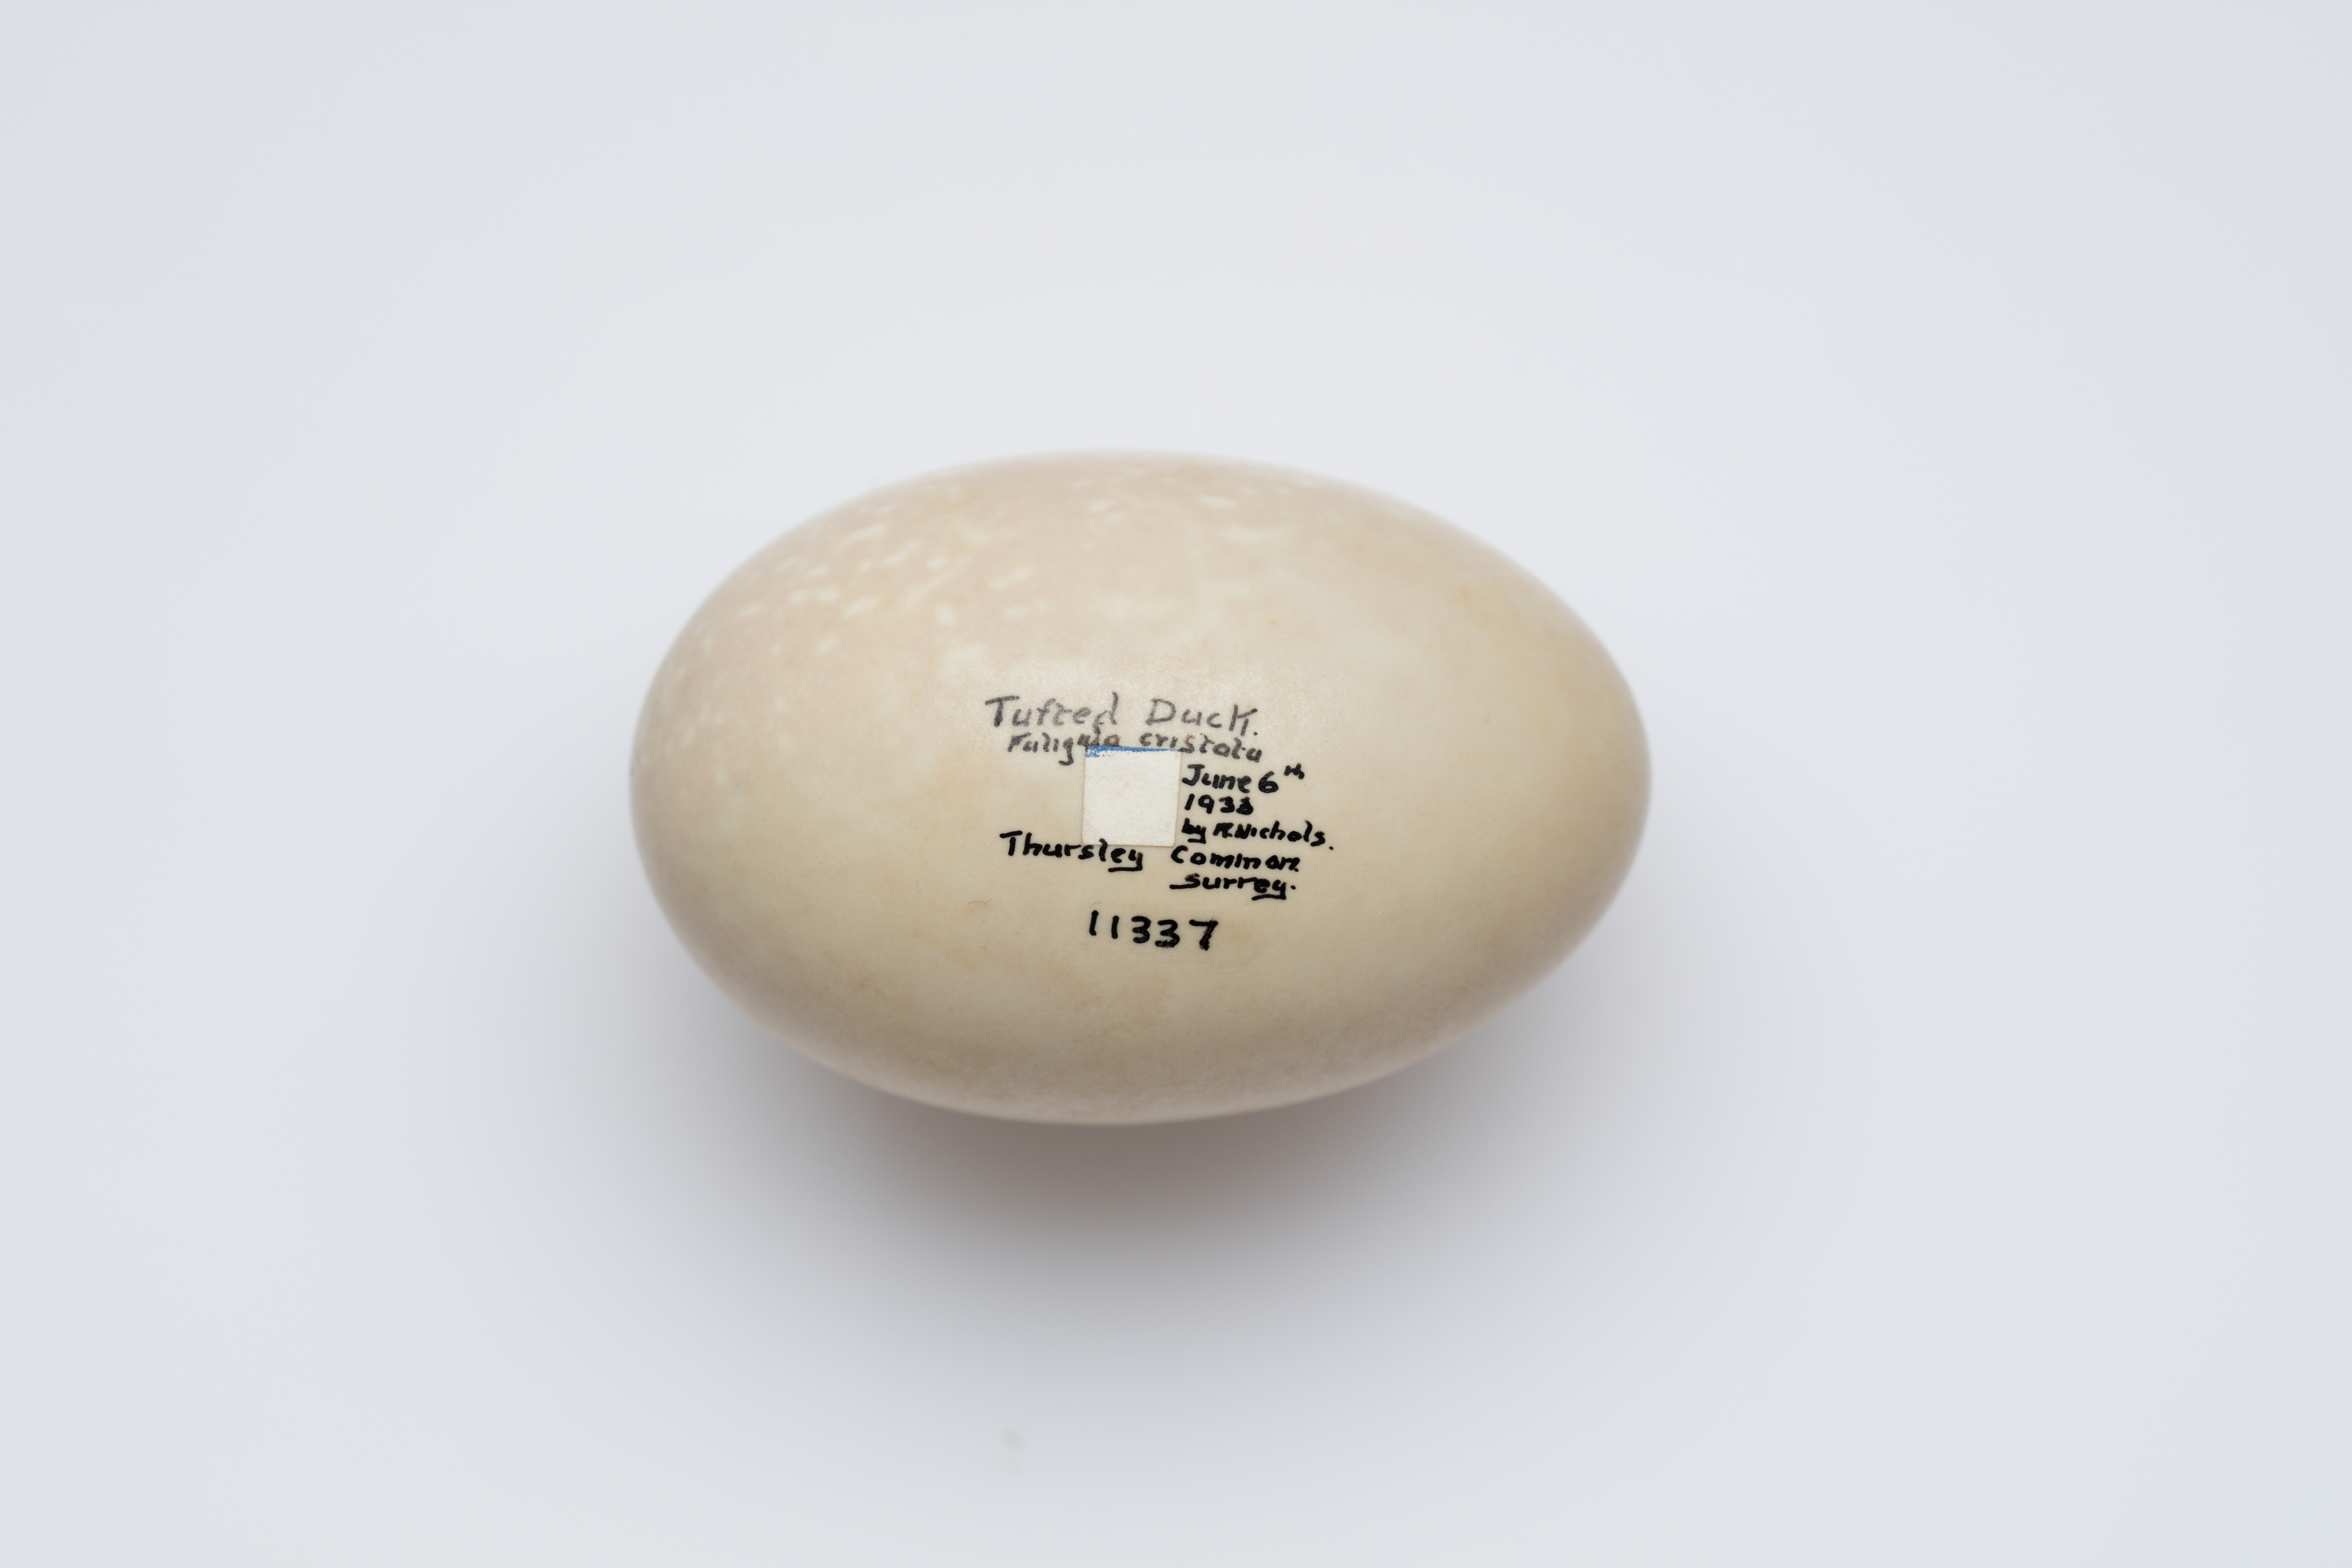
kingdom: Animalia
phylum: Chordata
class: Aves
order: Anseriformes
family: Anatidae
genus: Aythya
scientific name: Aythya fuligula
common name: Tufted duck
